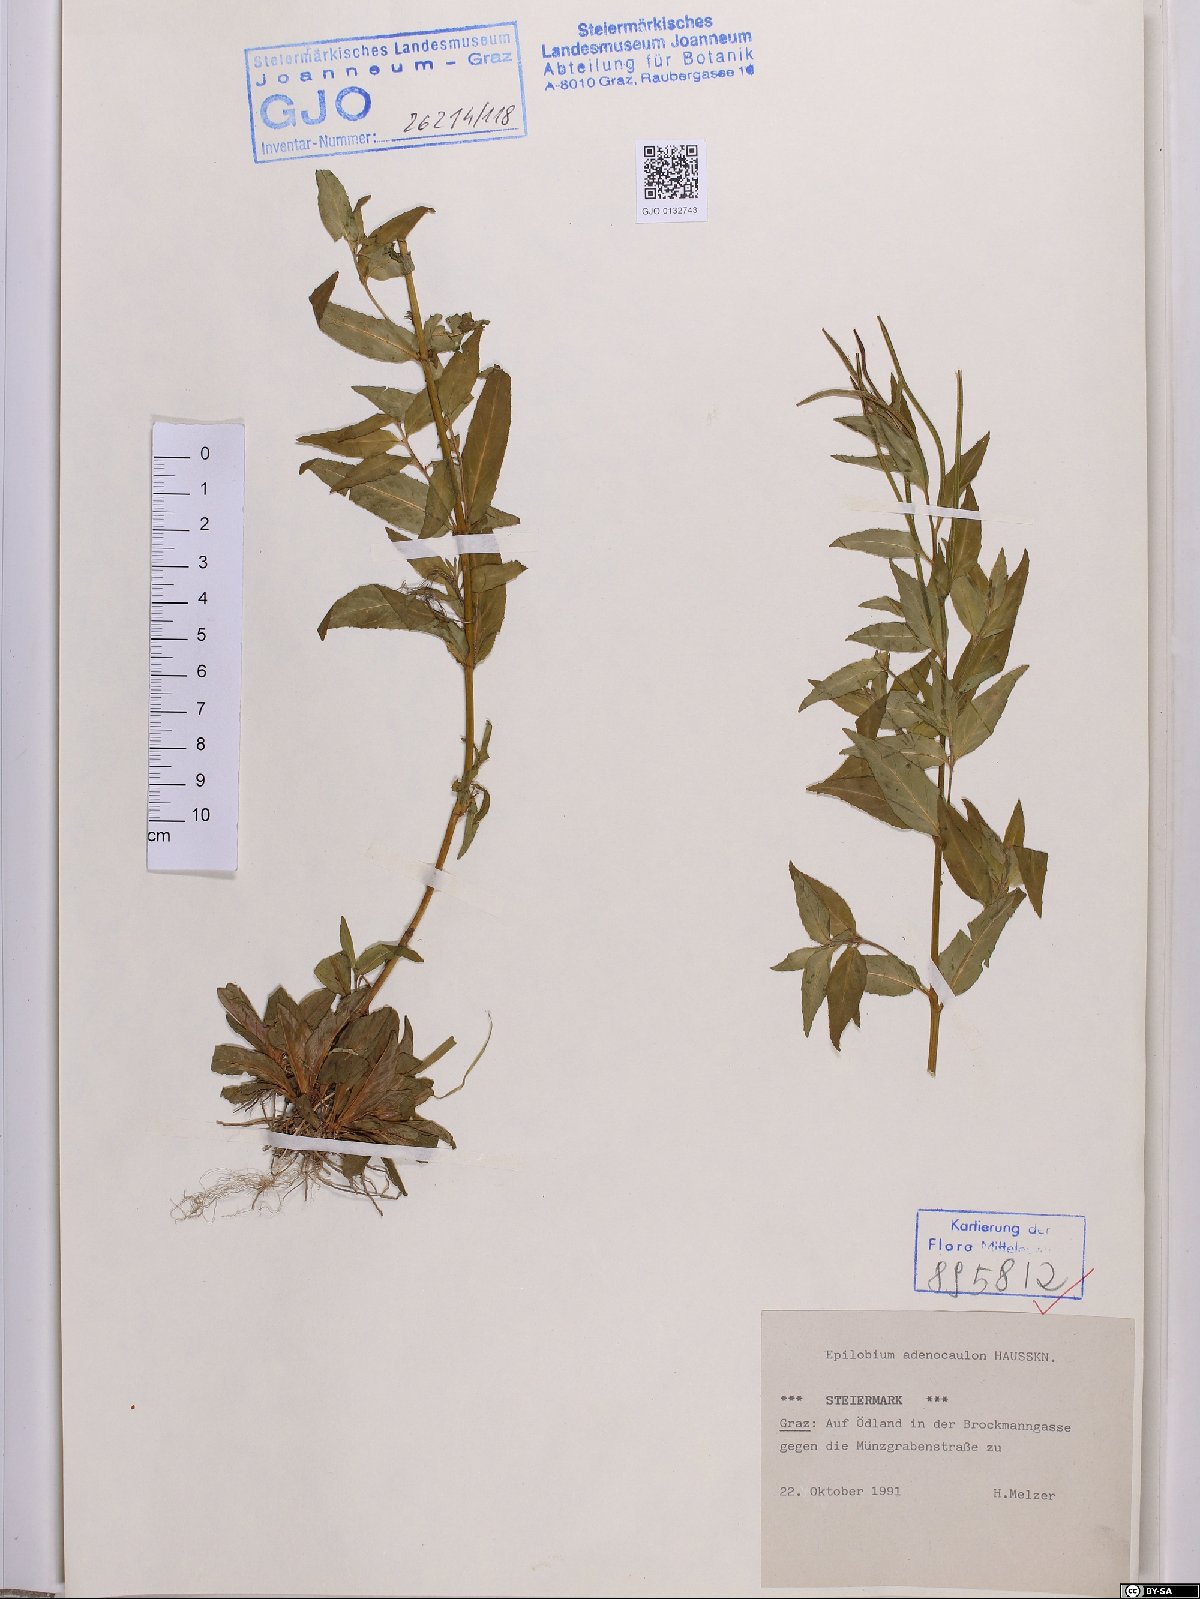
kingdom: Plantae
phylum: Tracheophyta
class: Magnoliopsida
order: Myrtales
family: Onagraceae
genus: Epilobium
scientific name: Epilobium ciliatum
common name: American willowherb
